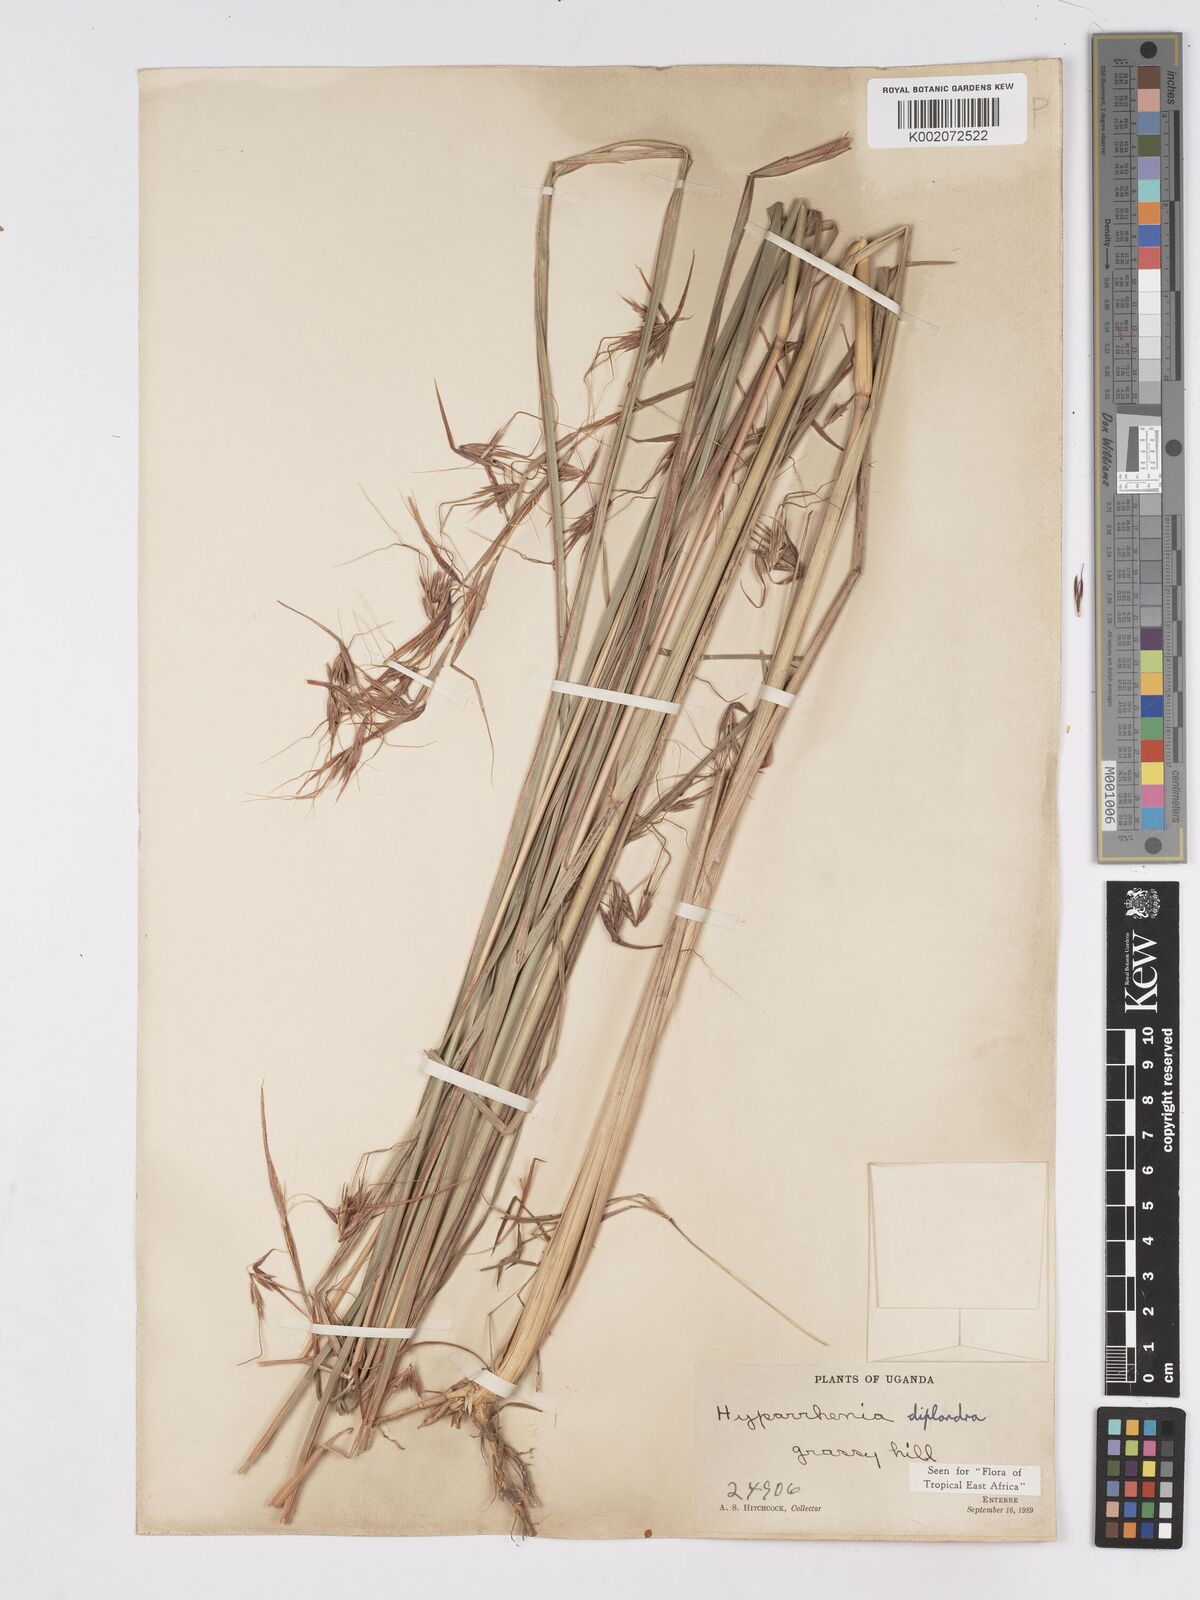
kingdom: Plantae
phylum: Tracheophyta
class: Liliopsida
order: Poales
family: Poaceae
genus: Hyparrhenia
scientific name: Hyparrhenia diplandra
